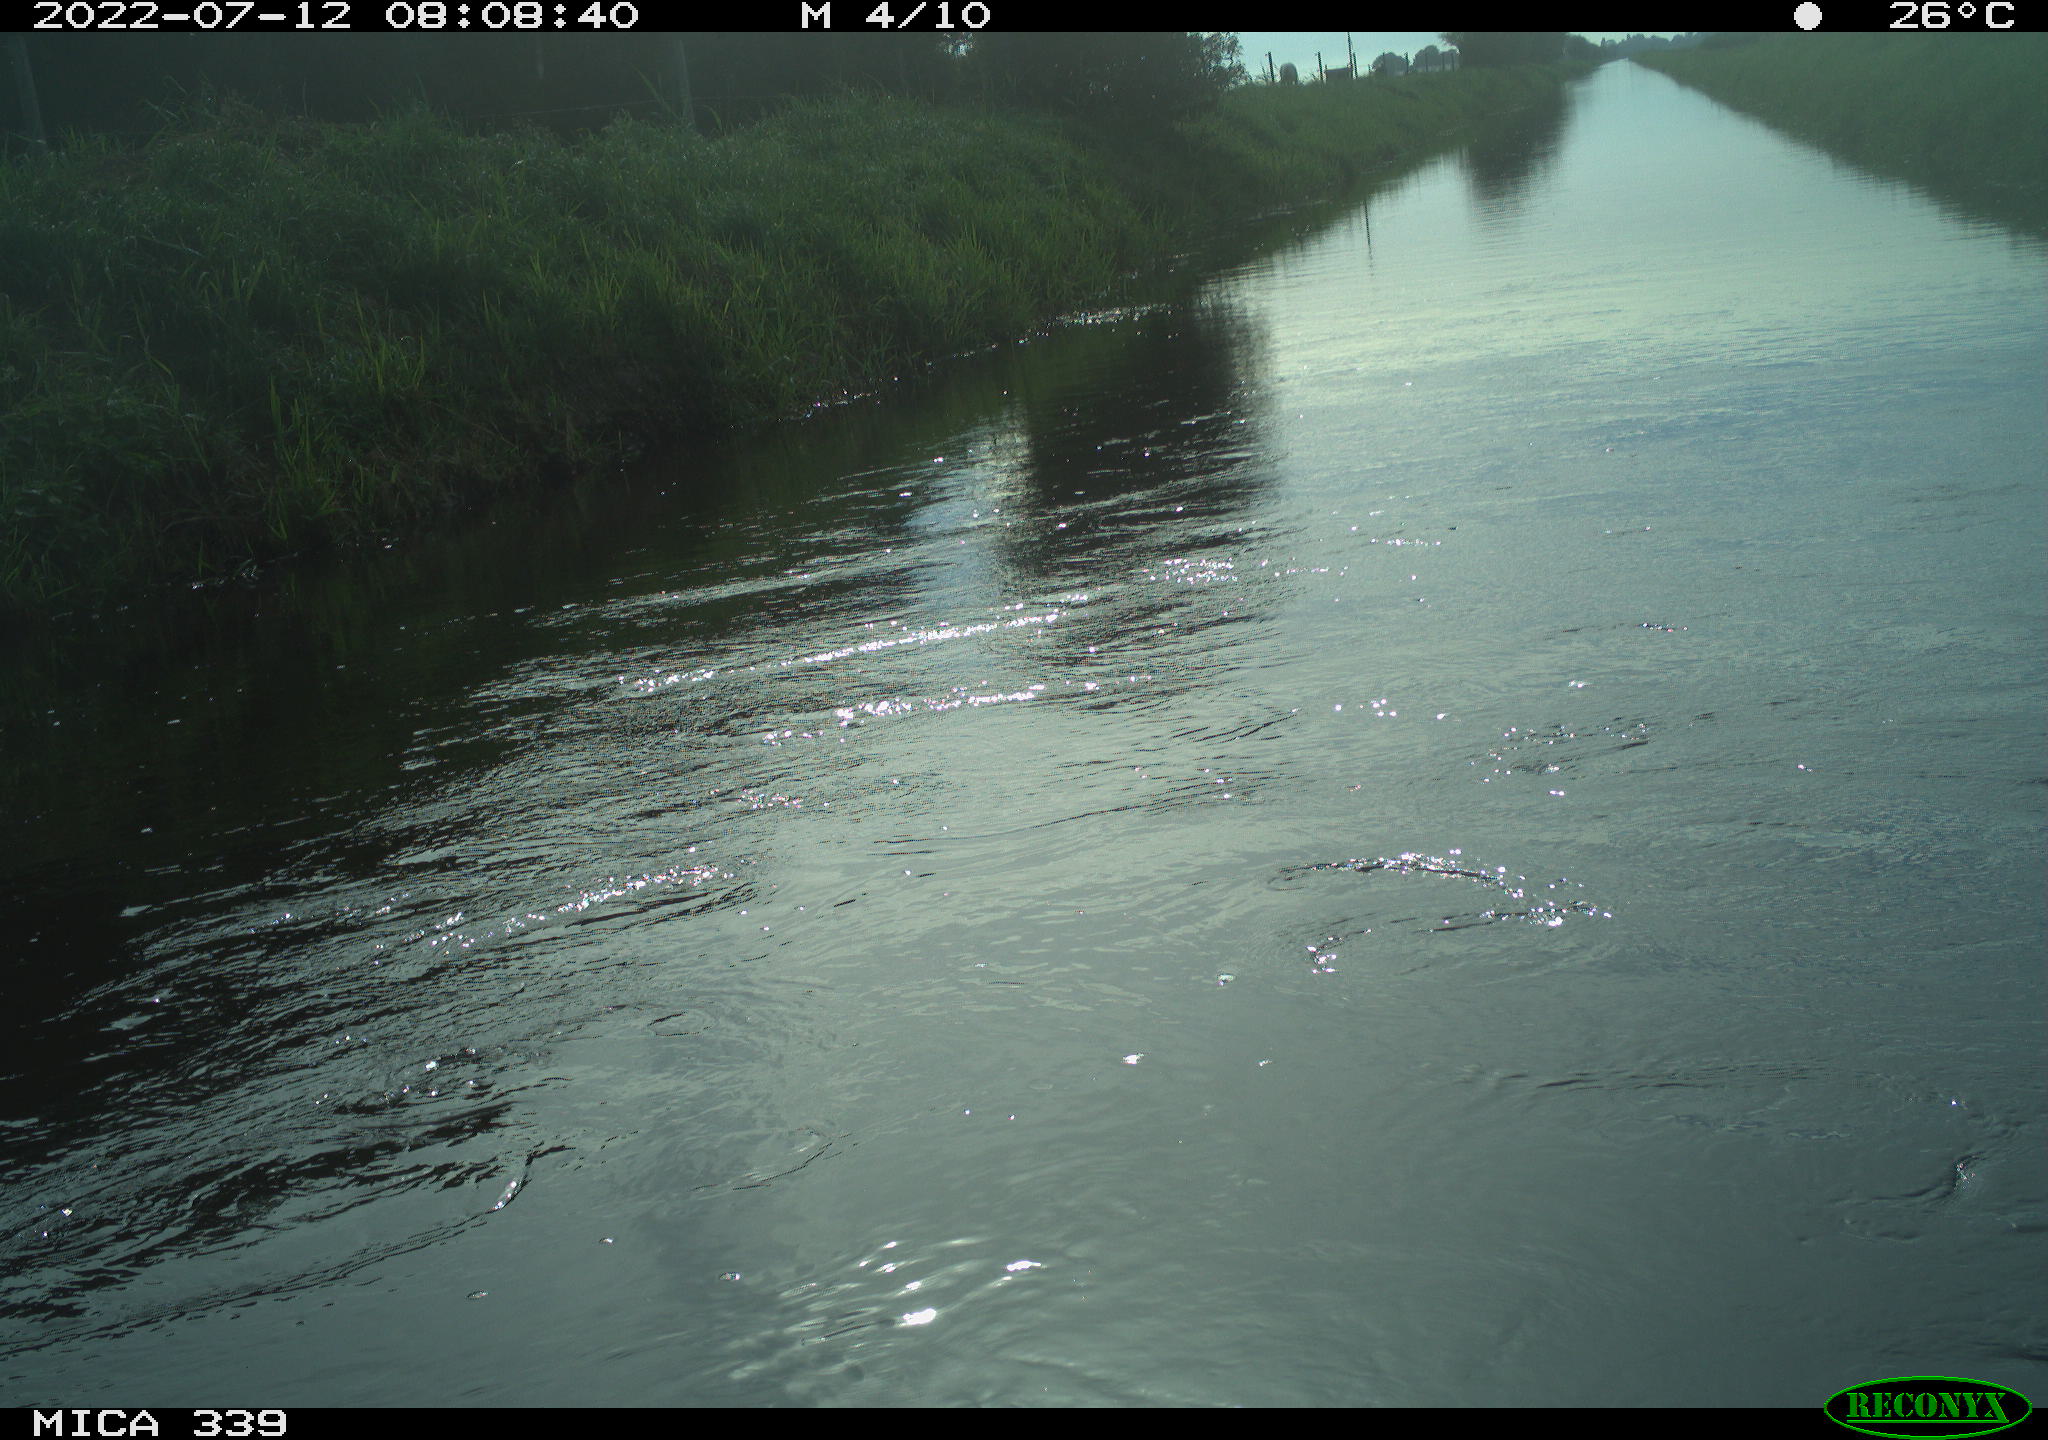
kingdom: Animalia
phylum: Chordata
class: Aves
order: Pelecaniformes
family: Ardeidae
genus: Ardea
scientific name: Ardea cinerea
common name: Grey heron
